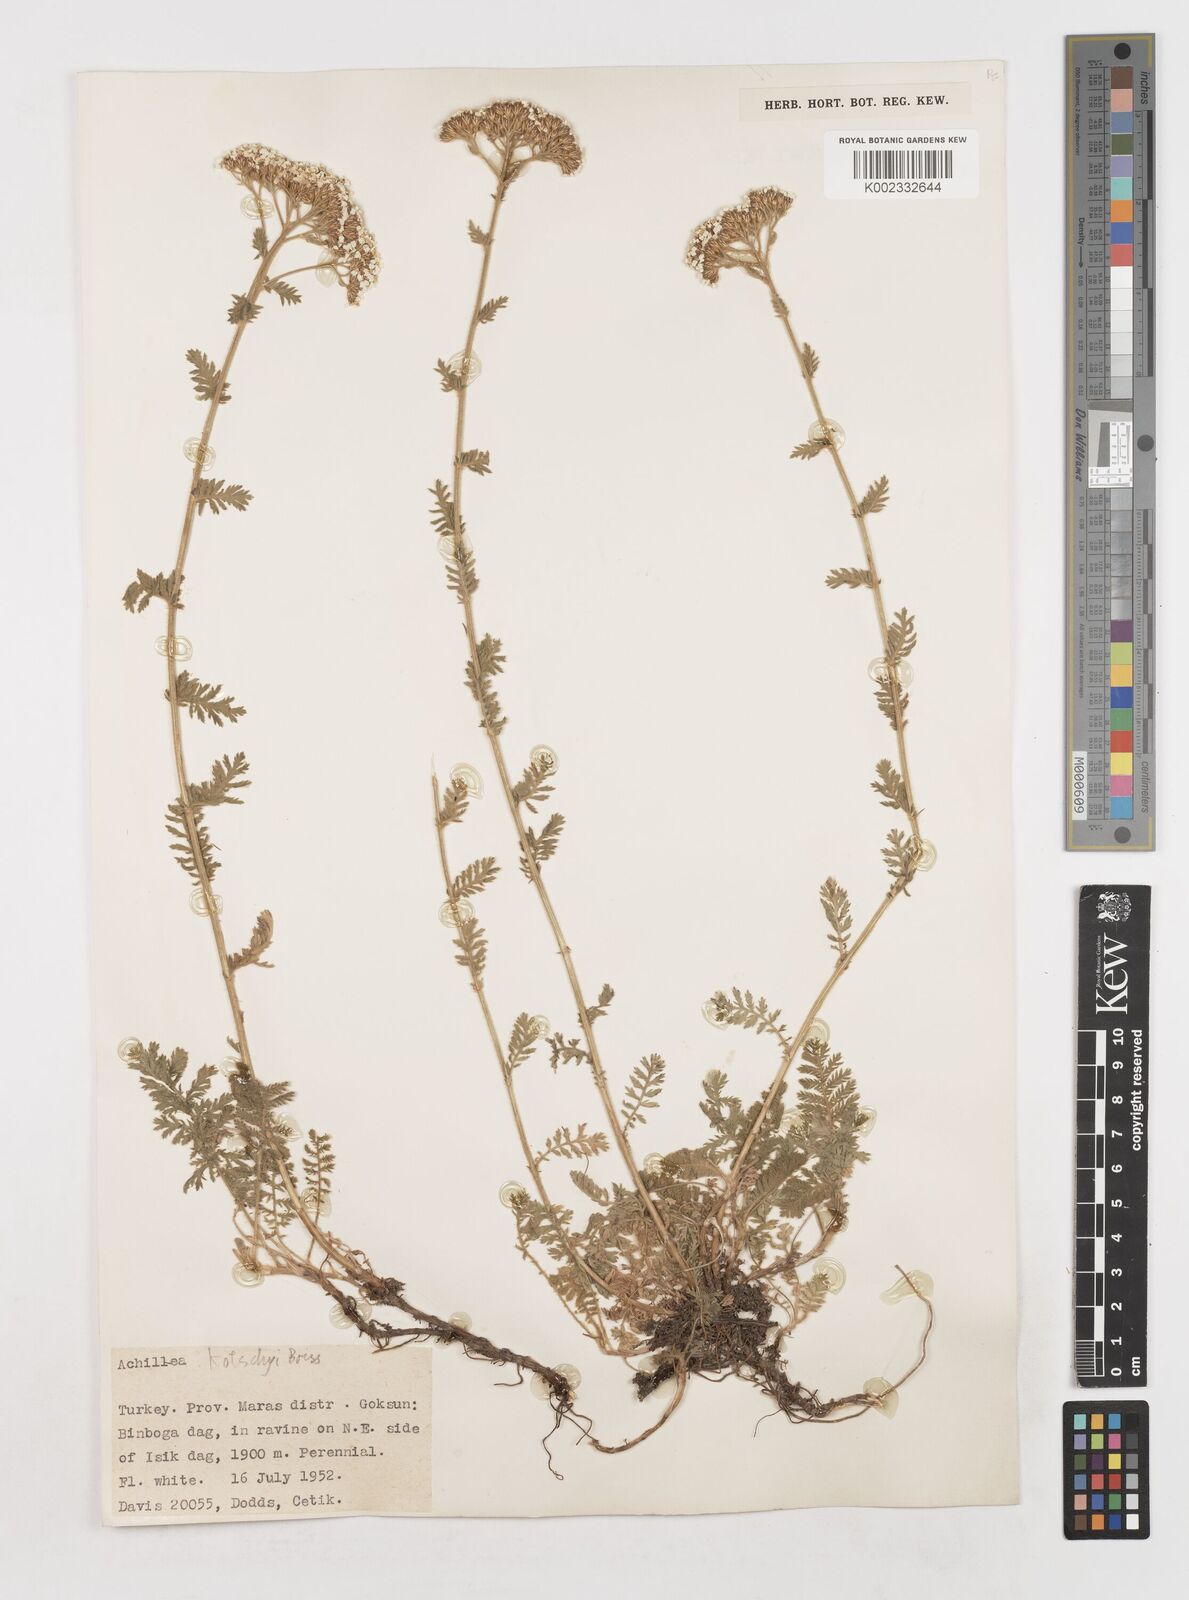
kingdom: Plantae
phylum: Tracheophyta
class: Magnoliopsida
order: Asterales
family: Asteraceae
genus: Achillea
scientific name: Achillea kotschyi
